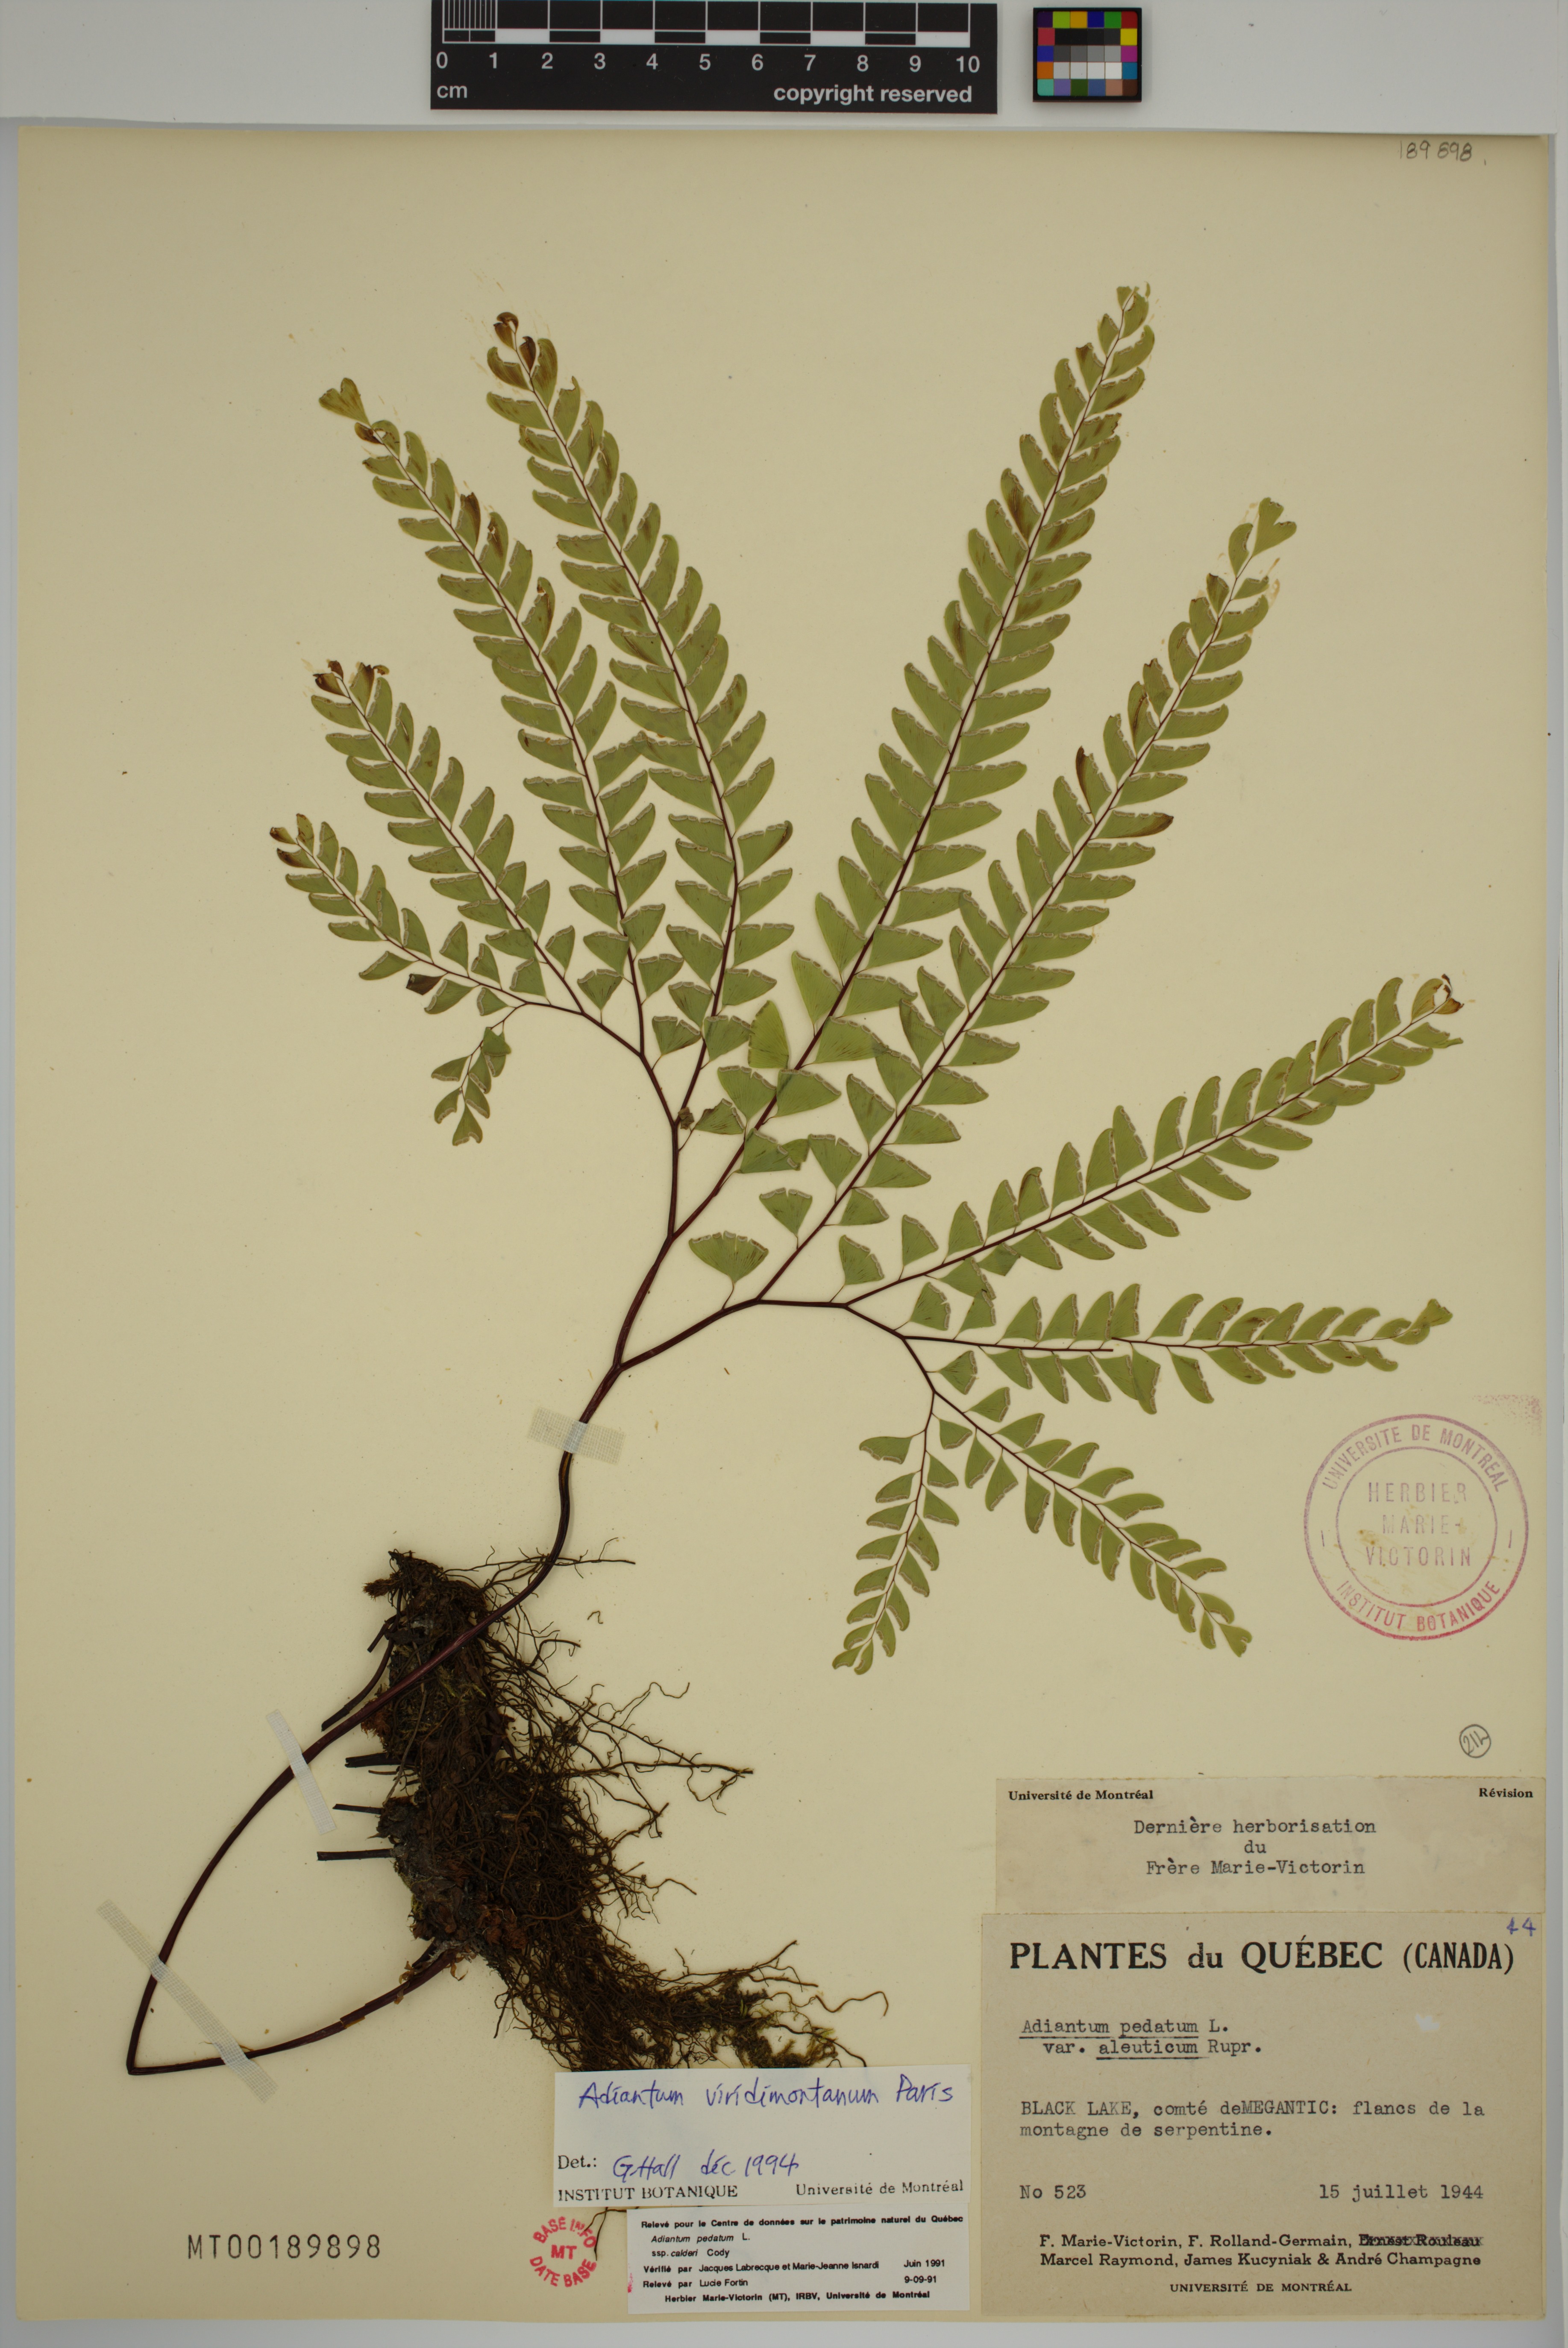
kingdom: Plantae
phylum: Tracheophyta
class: Polypodiopsida
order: Polypodiales
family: Pteridaceae
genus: Adiantum
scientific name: Adiantum viridimontanum
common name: Green mountain maidenhair
